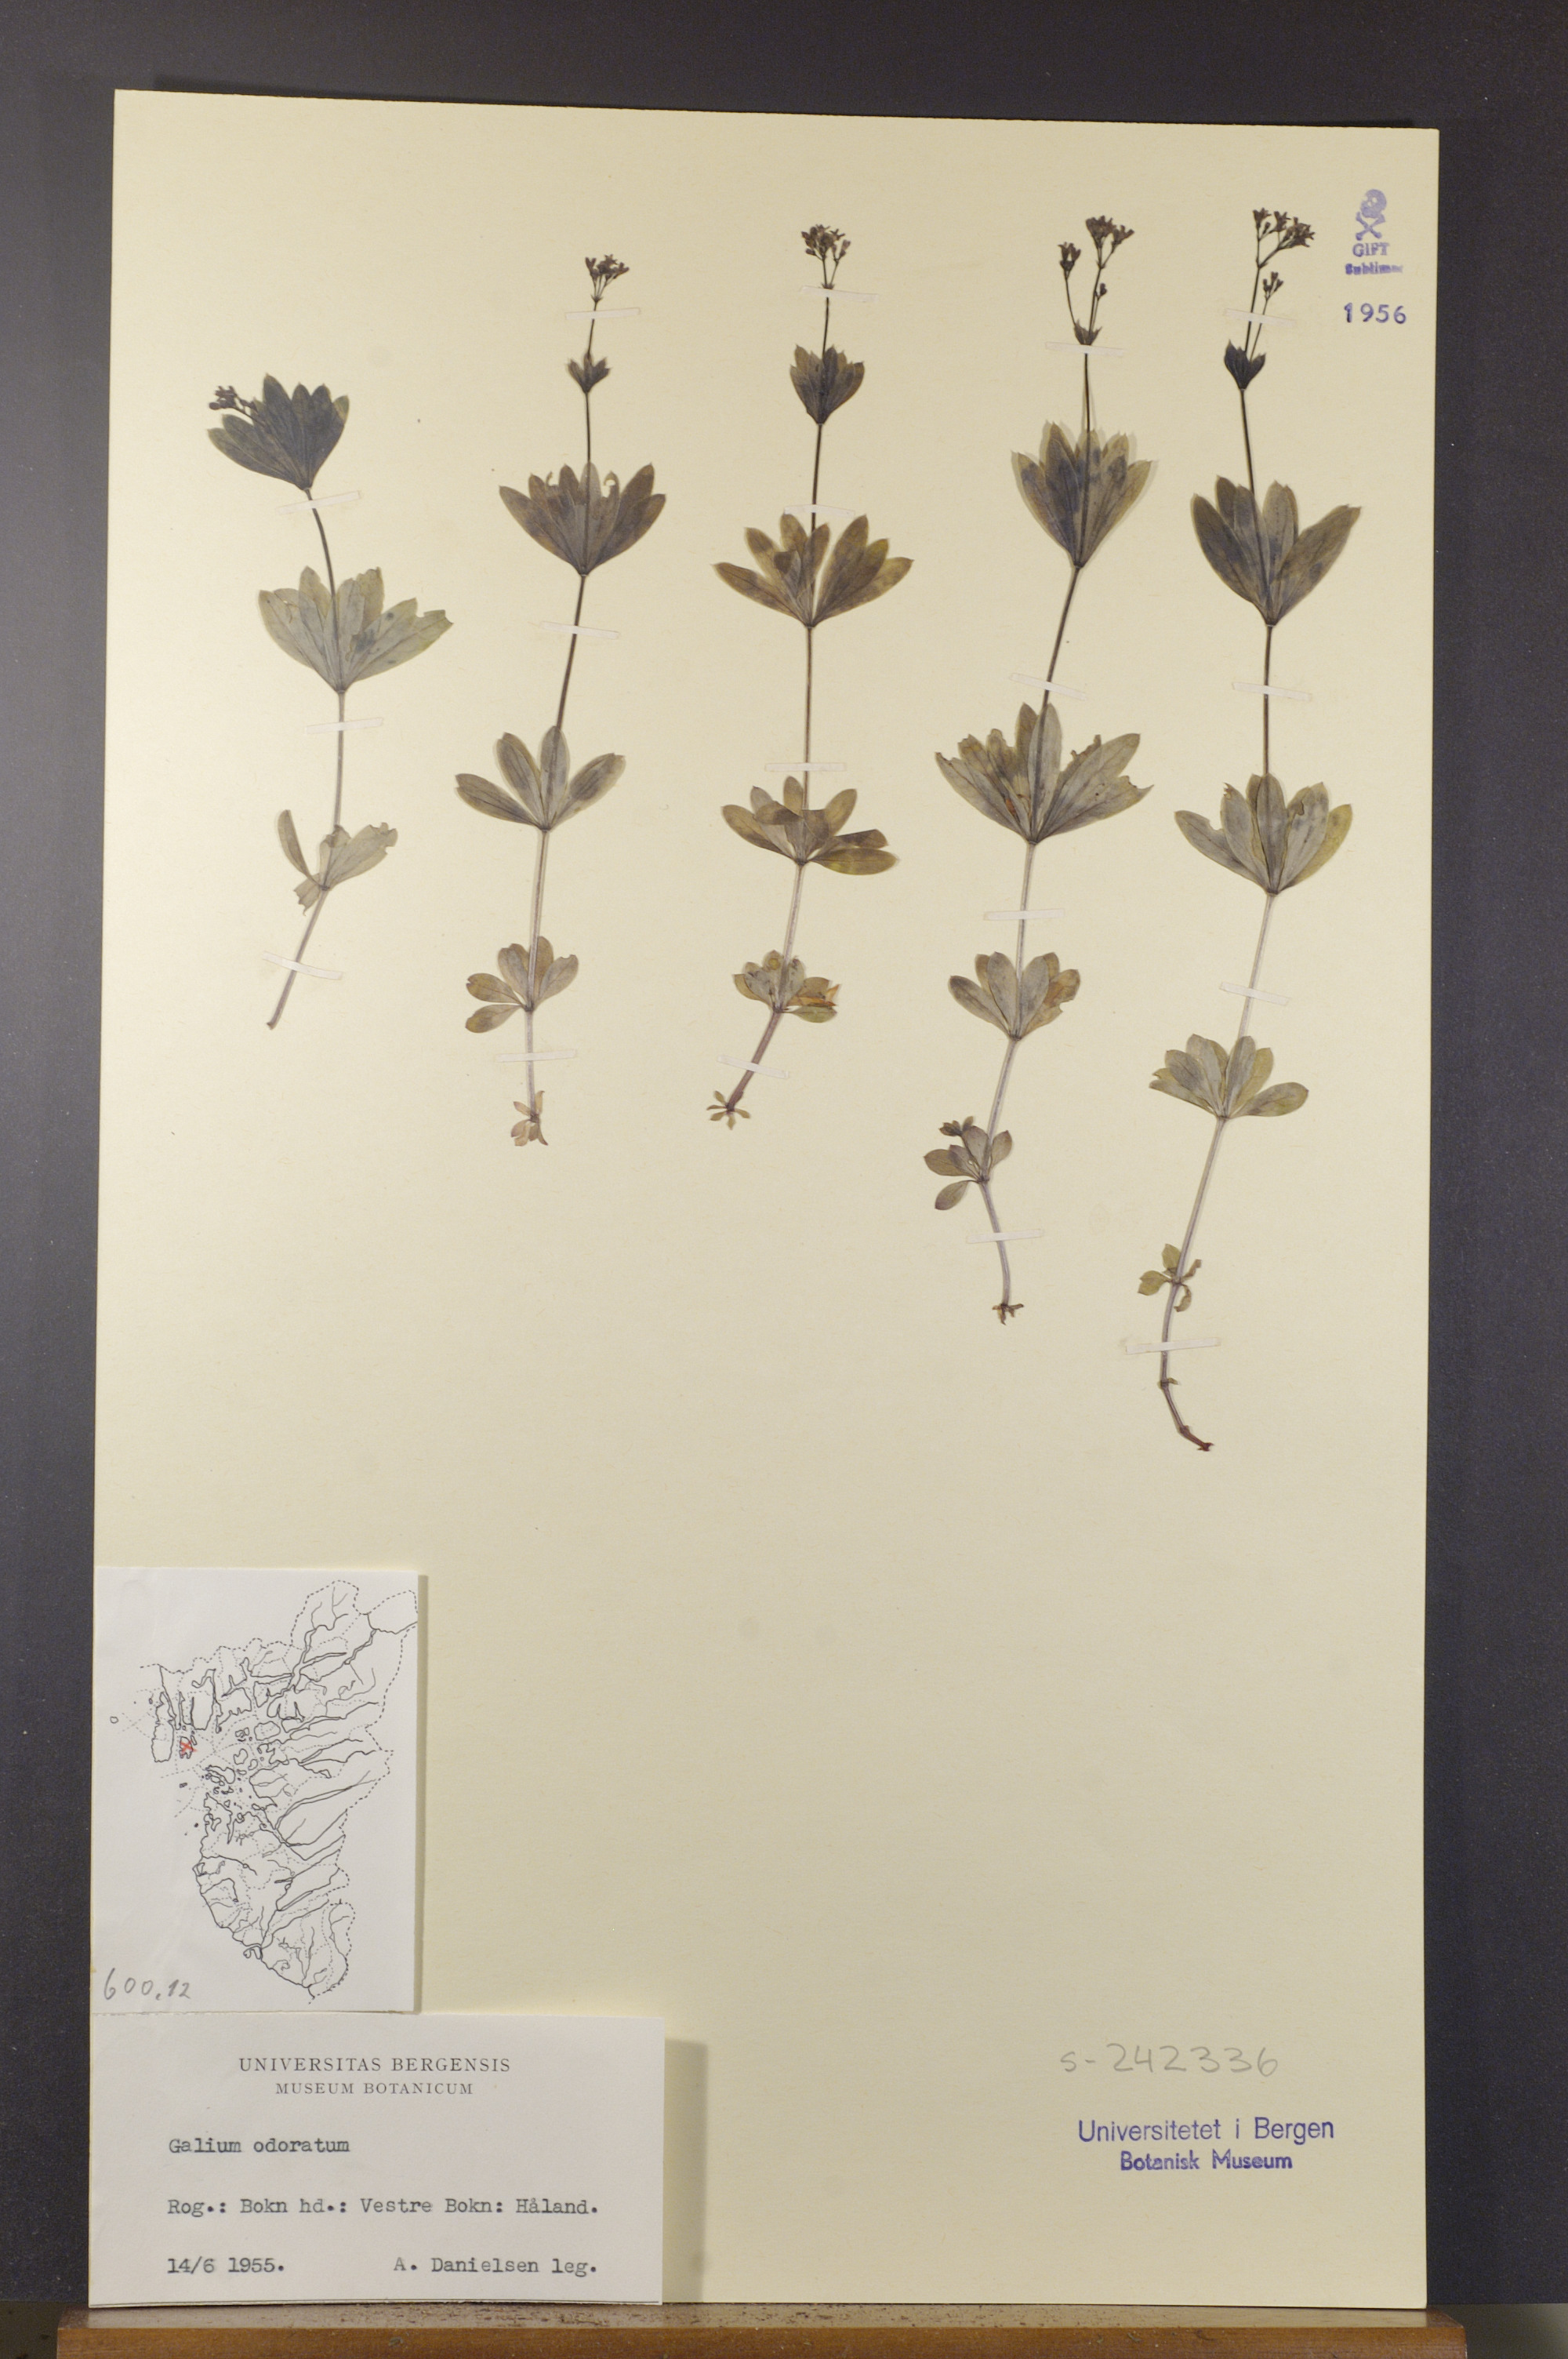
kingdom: Plantae
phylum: Tracheophyta
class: Magnoliopsida
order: Gentianales
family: Rubiaceae
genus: Galium
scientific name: Galium odoratum
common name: Sweet woodruff
